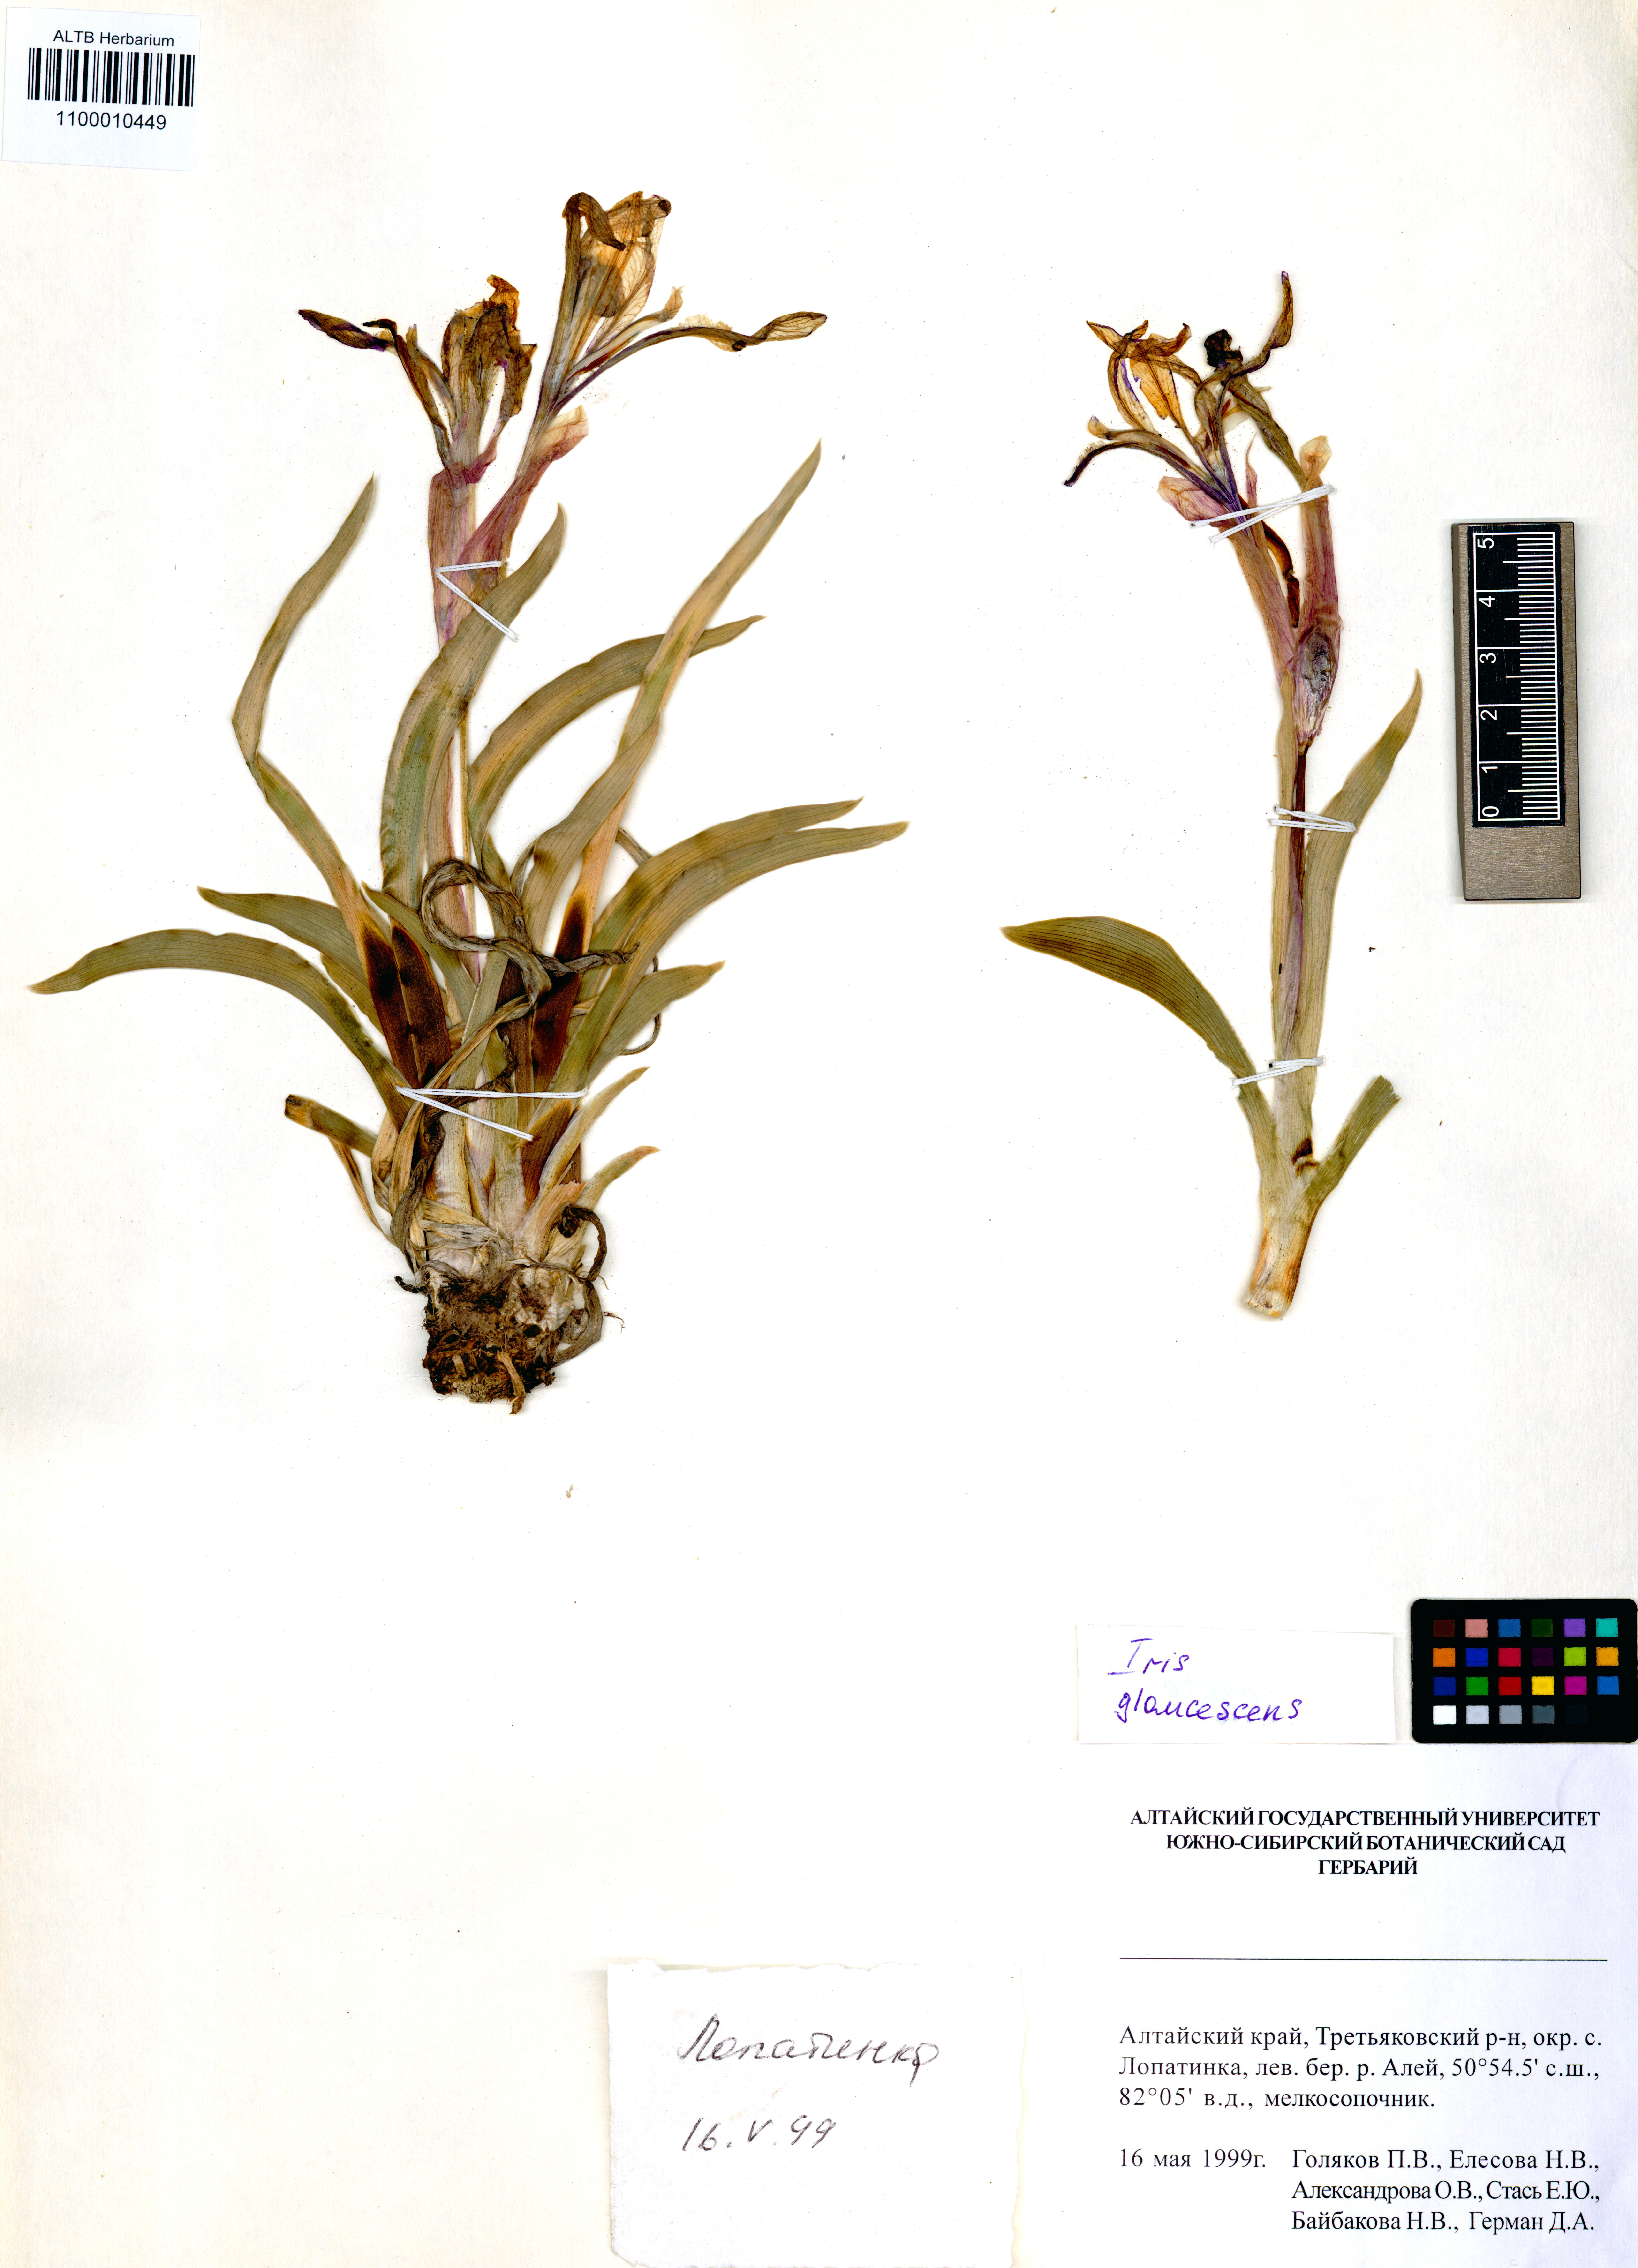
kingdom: Plantae
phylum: Tracheophyta
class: Liliopsida
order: Asparagales
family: Iridaceae
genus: Iris
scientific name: Iris glaucescens
